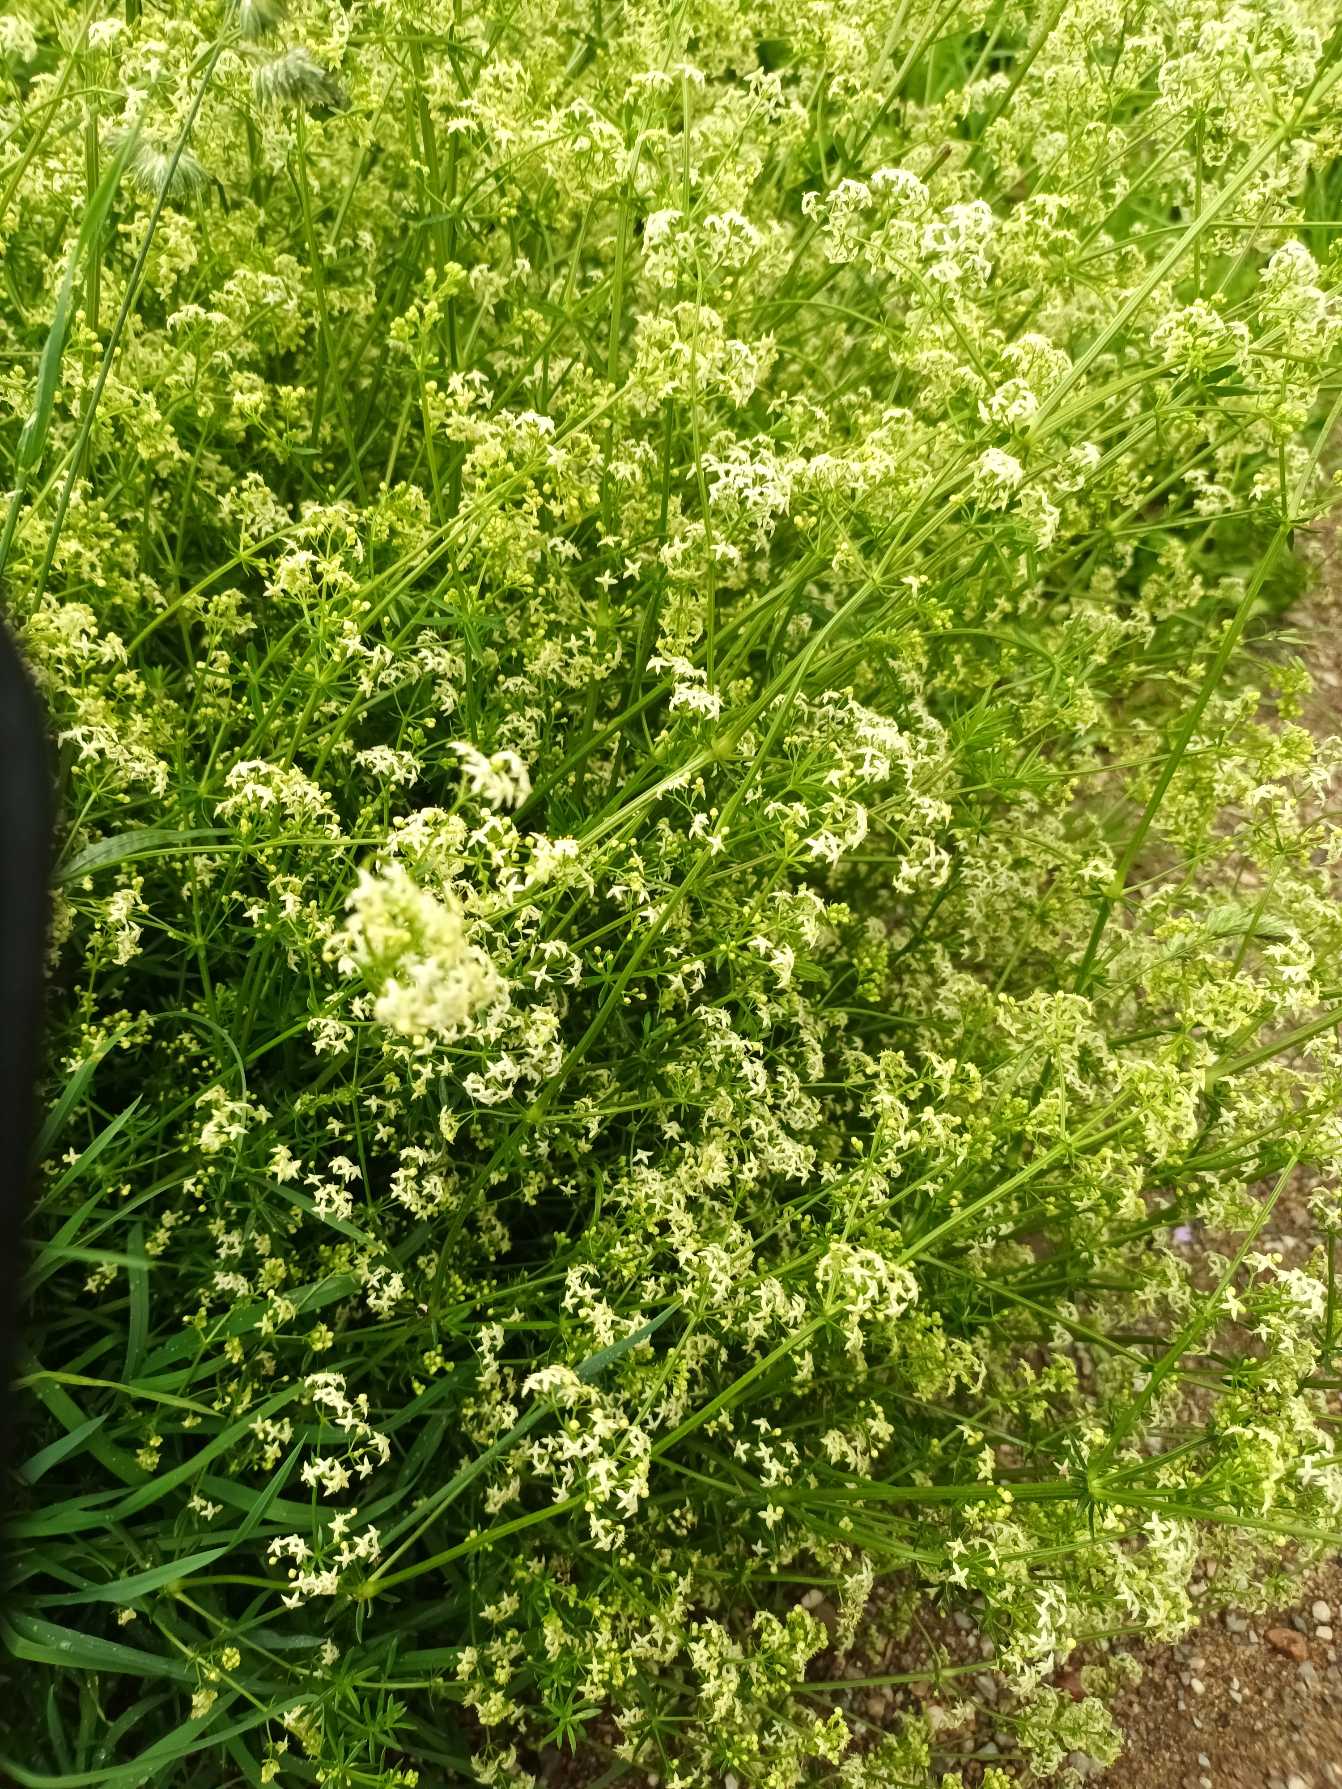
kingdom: Plantae
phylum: Tracheophyta
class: Magnoliopsida
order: Gentianales
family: Rubiaceae
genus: Galium
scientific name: Galium mollugo
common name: Hvid snerre
